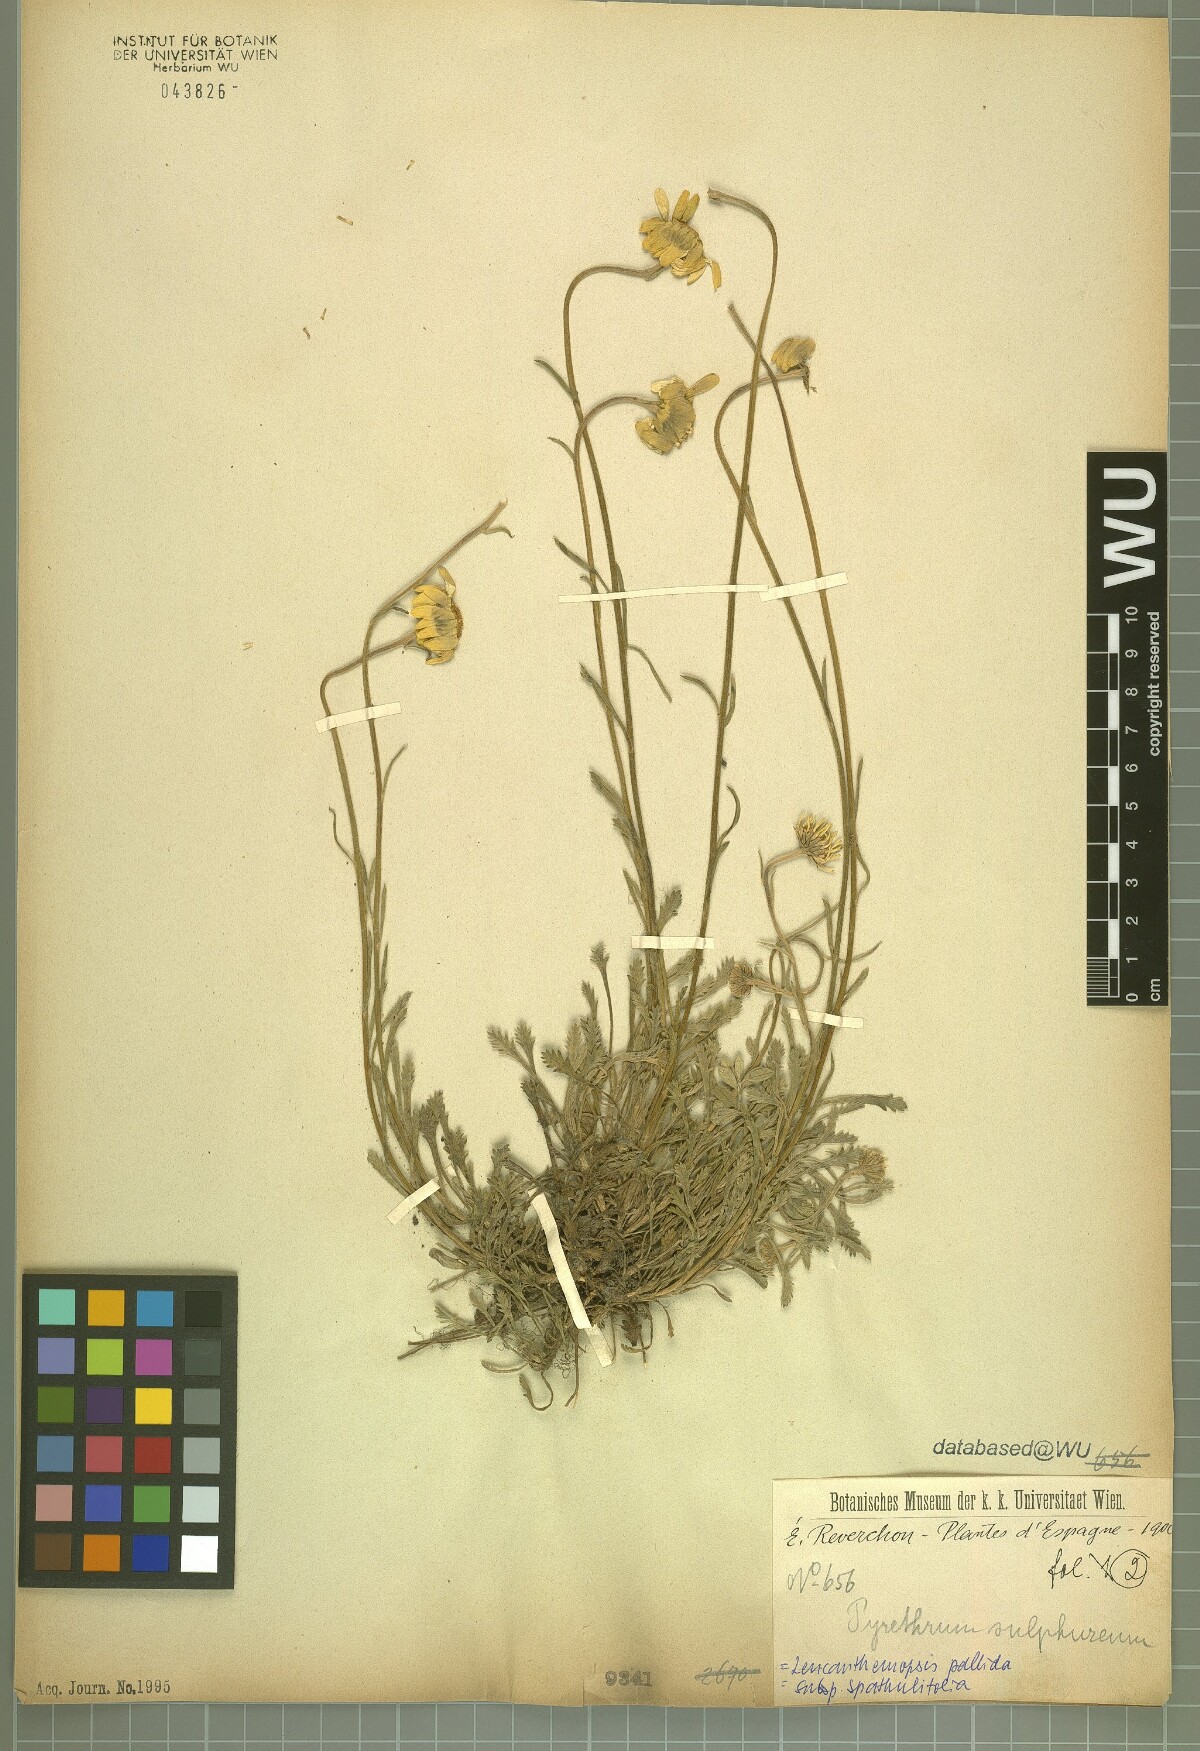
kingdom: Plantae
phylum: Tracheophyta
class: Magnoliopsida
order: Asterales
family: Asteraceae
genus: Leucanthemopsis
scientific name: Leucanthemopsis spathulifolia
